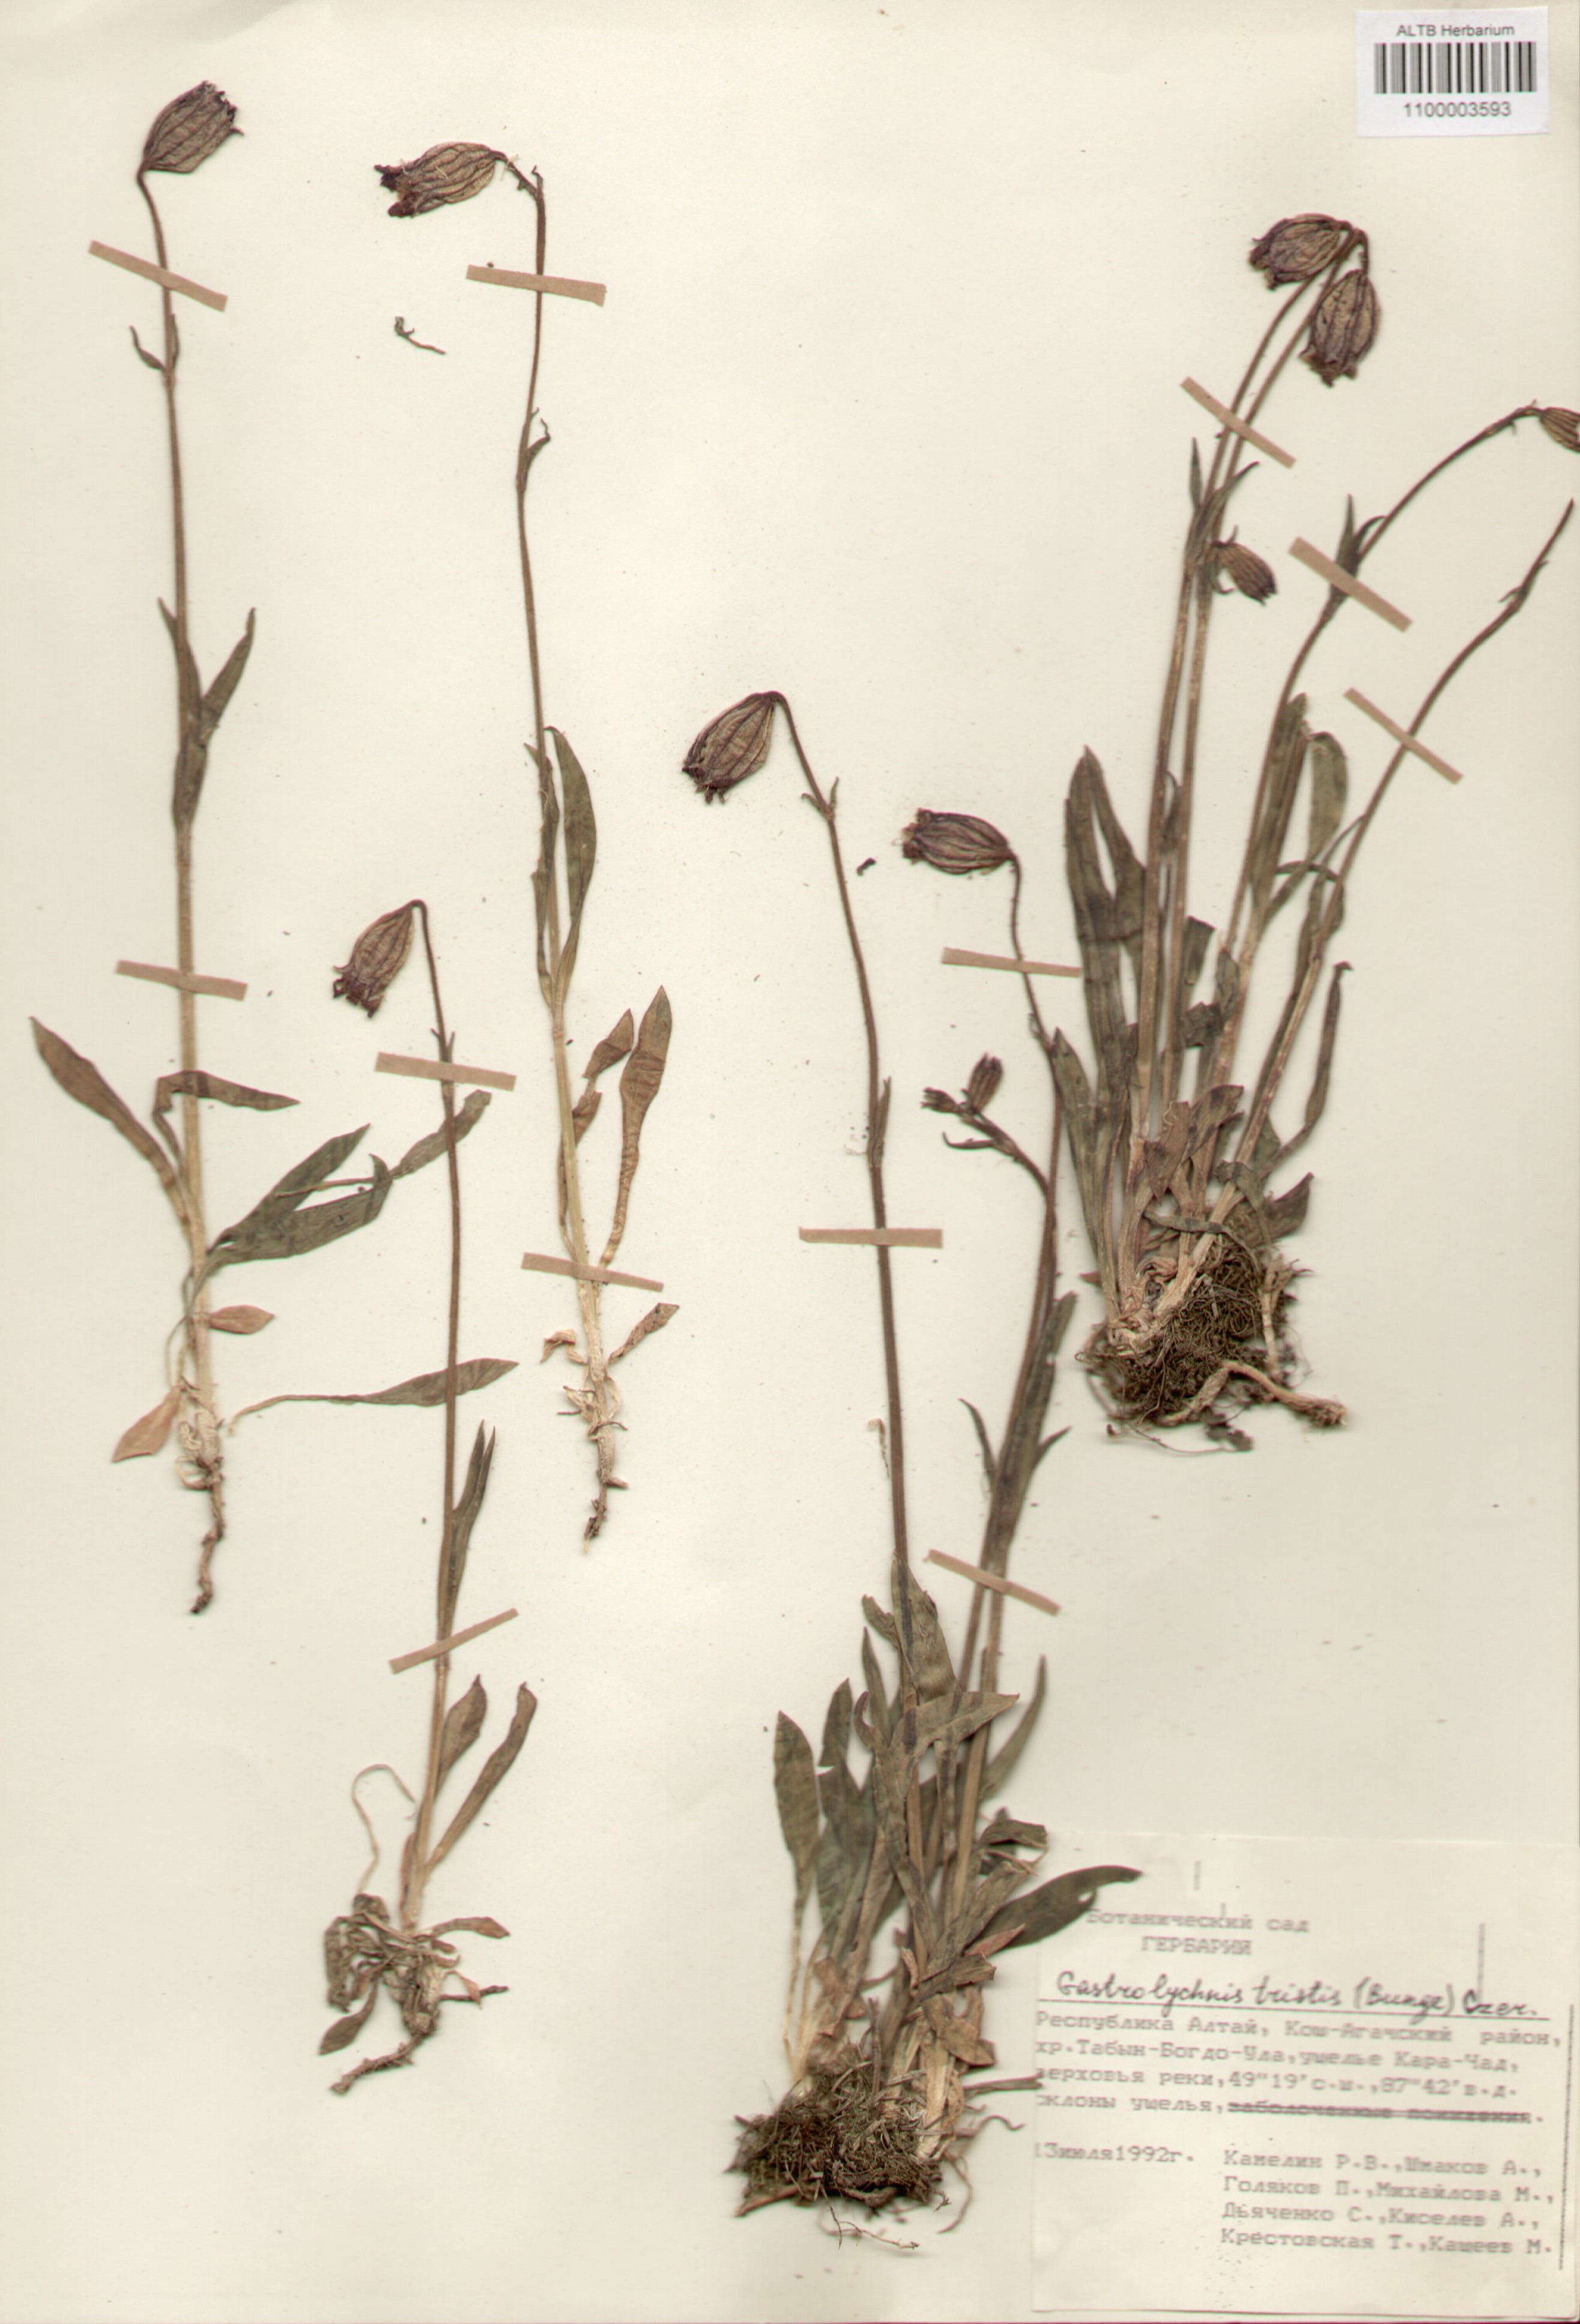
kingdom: Plantae
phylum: Tracheophyta
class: Magnoliopsida
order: Caryophyllales
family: Caryophyllaceae
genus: Silene
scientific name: Silene bungei
